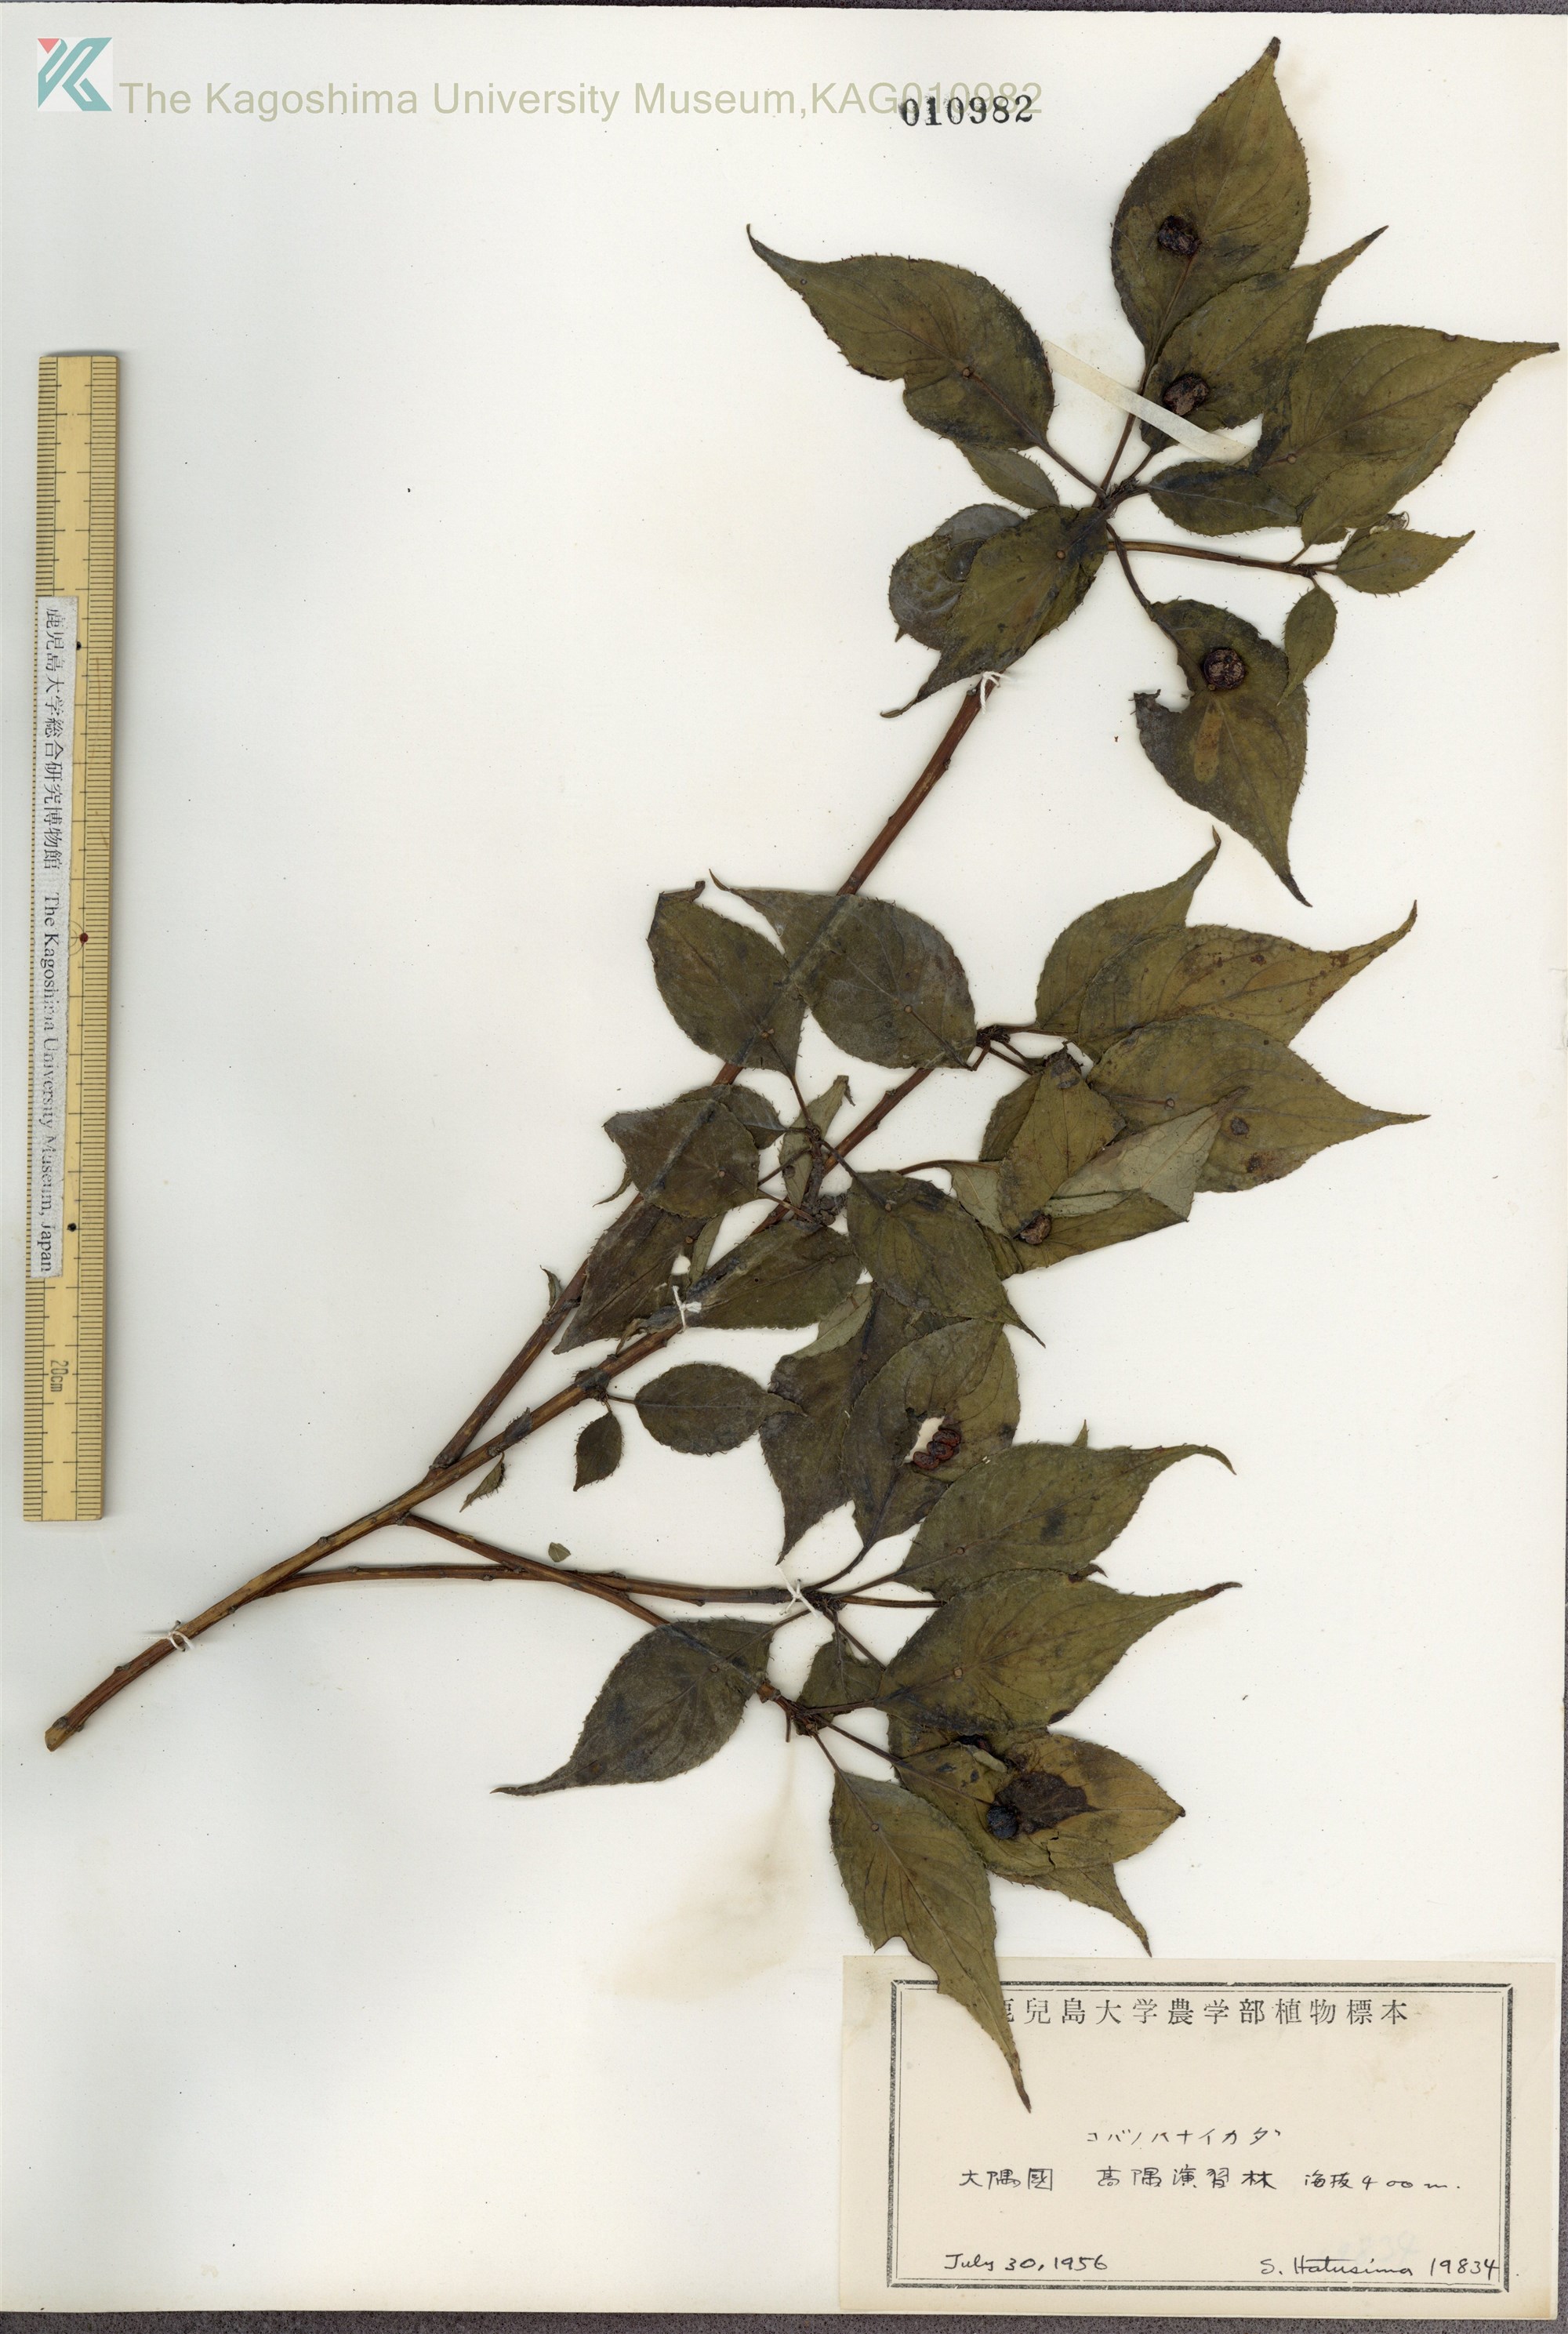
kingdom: Plantae
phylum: Tracheophyta
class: Magnoliopsida
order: Aquifoliales
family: Helwingiaceae
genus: Helwingia
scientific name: Helwingia japonica
